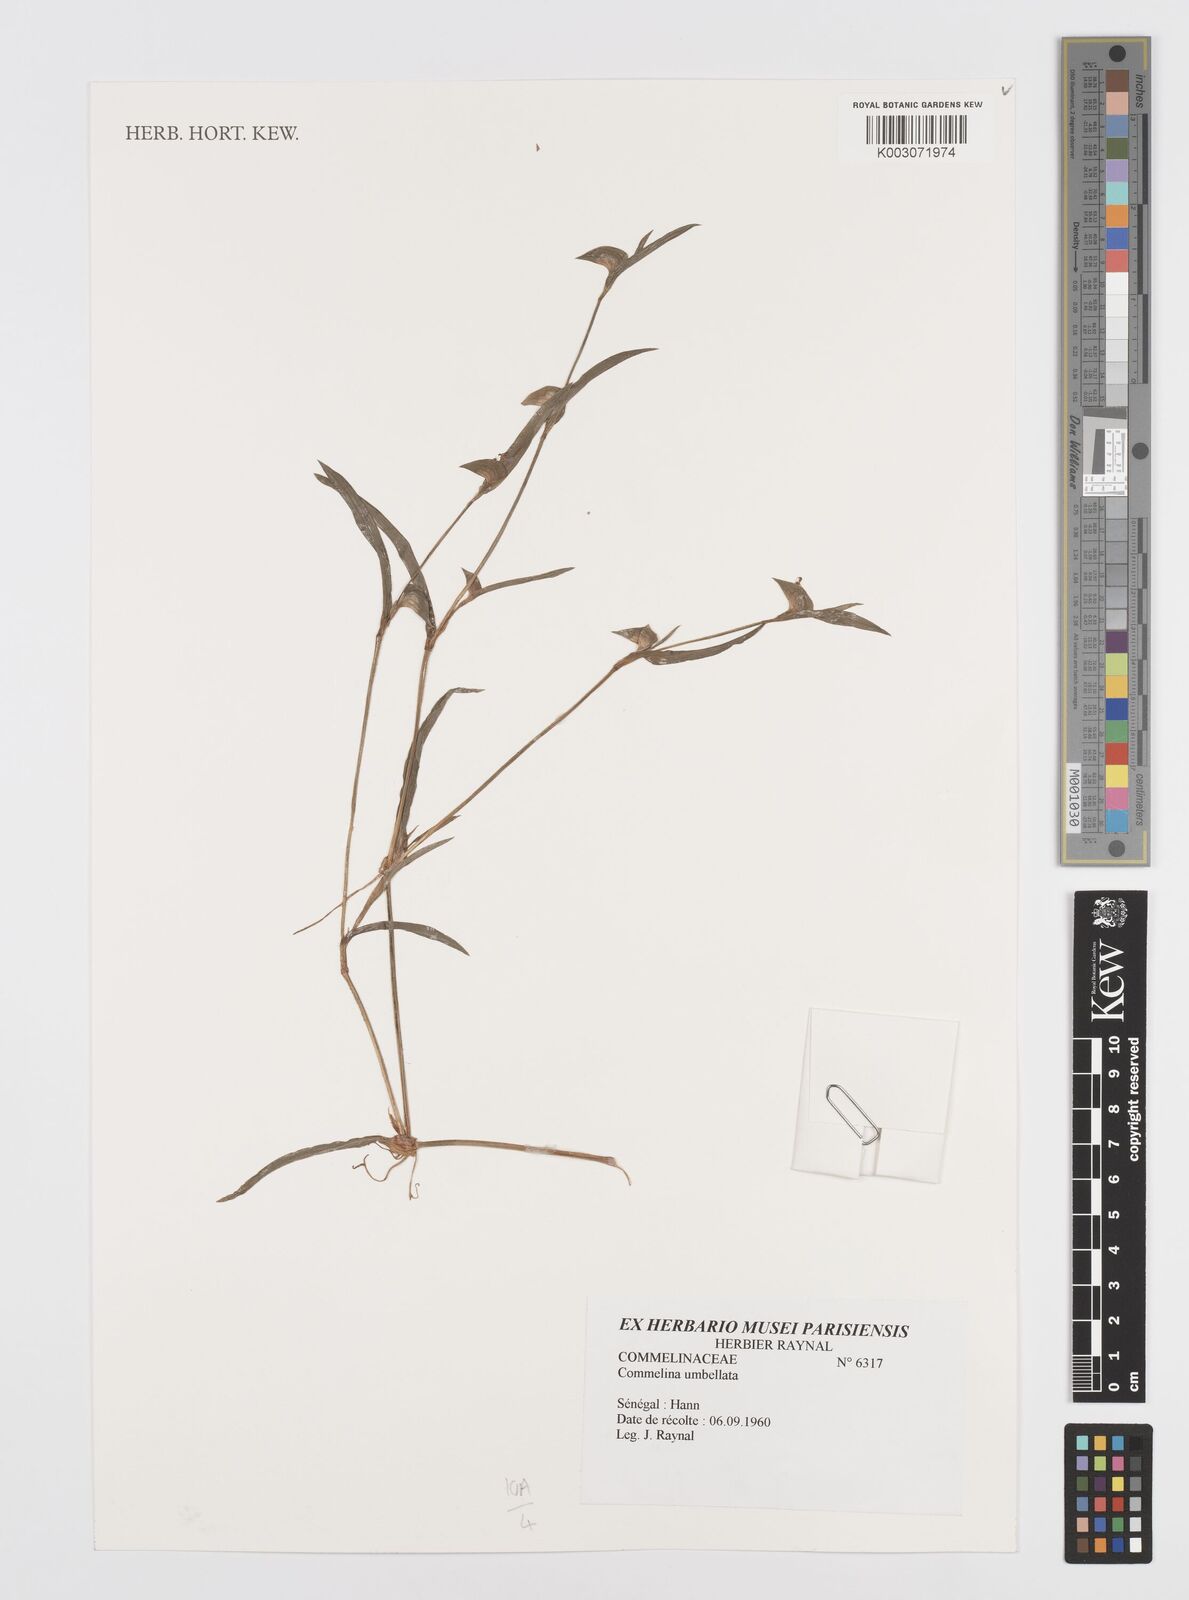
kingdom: Plantae
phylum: Tracheophyta
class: Liliopsida
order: Commelinales
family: Commelinaceae
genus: Commelina
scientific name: Commelina umbellata
